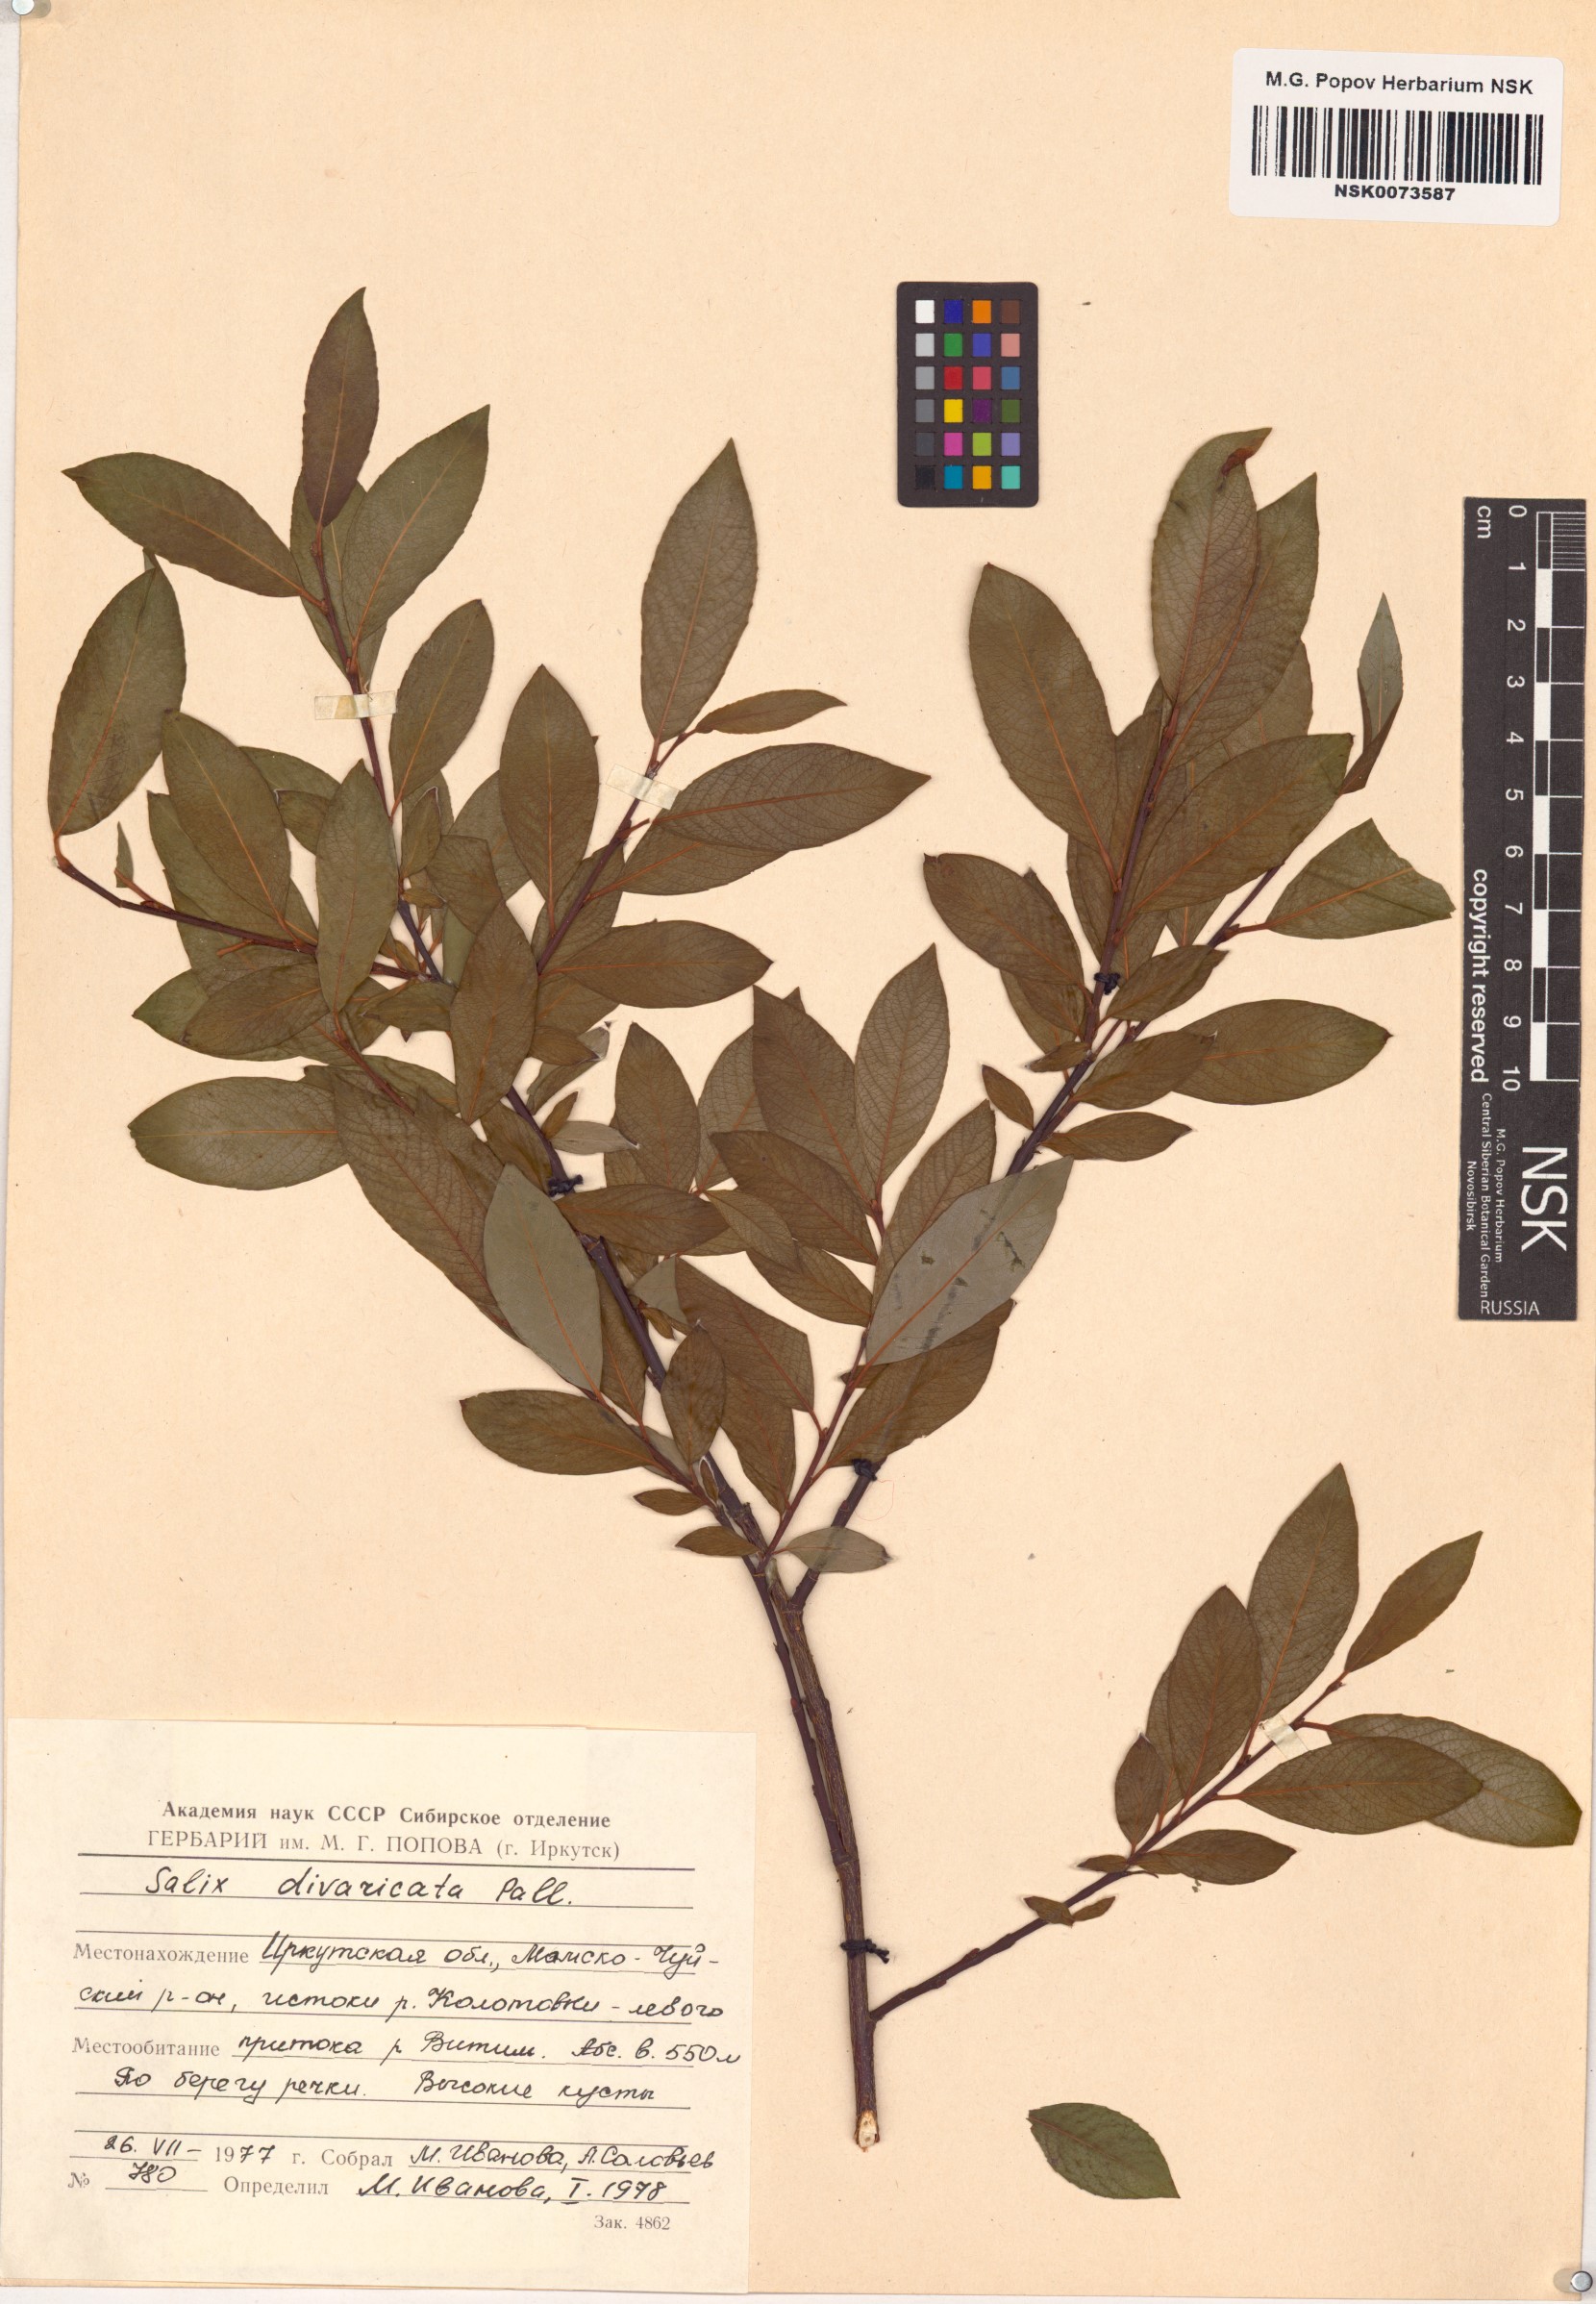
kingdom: Plantae
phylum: Tracheophyta
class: Magnoliopsida
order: Malpighiales
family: Salicaceae
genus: Salix
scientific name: Salix divaricata
